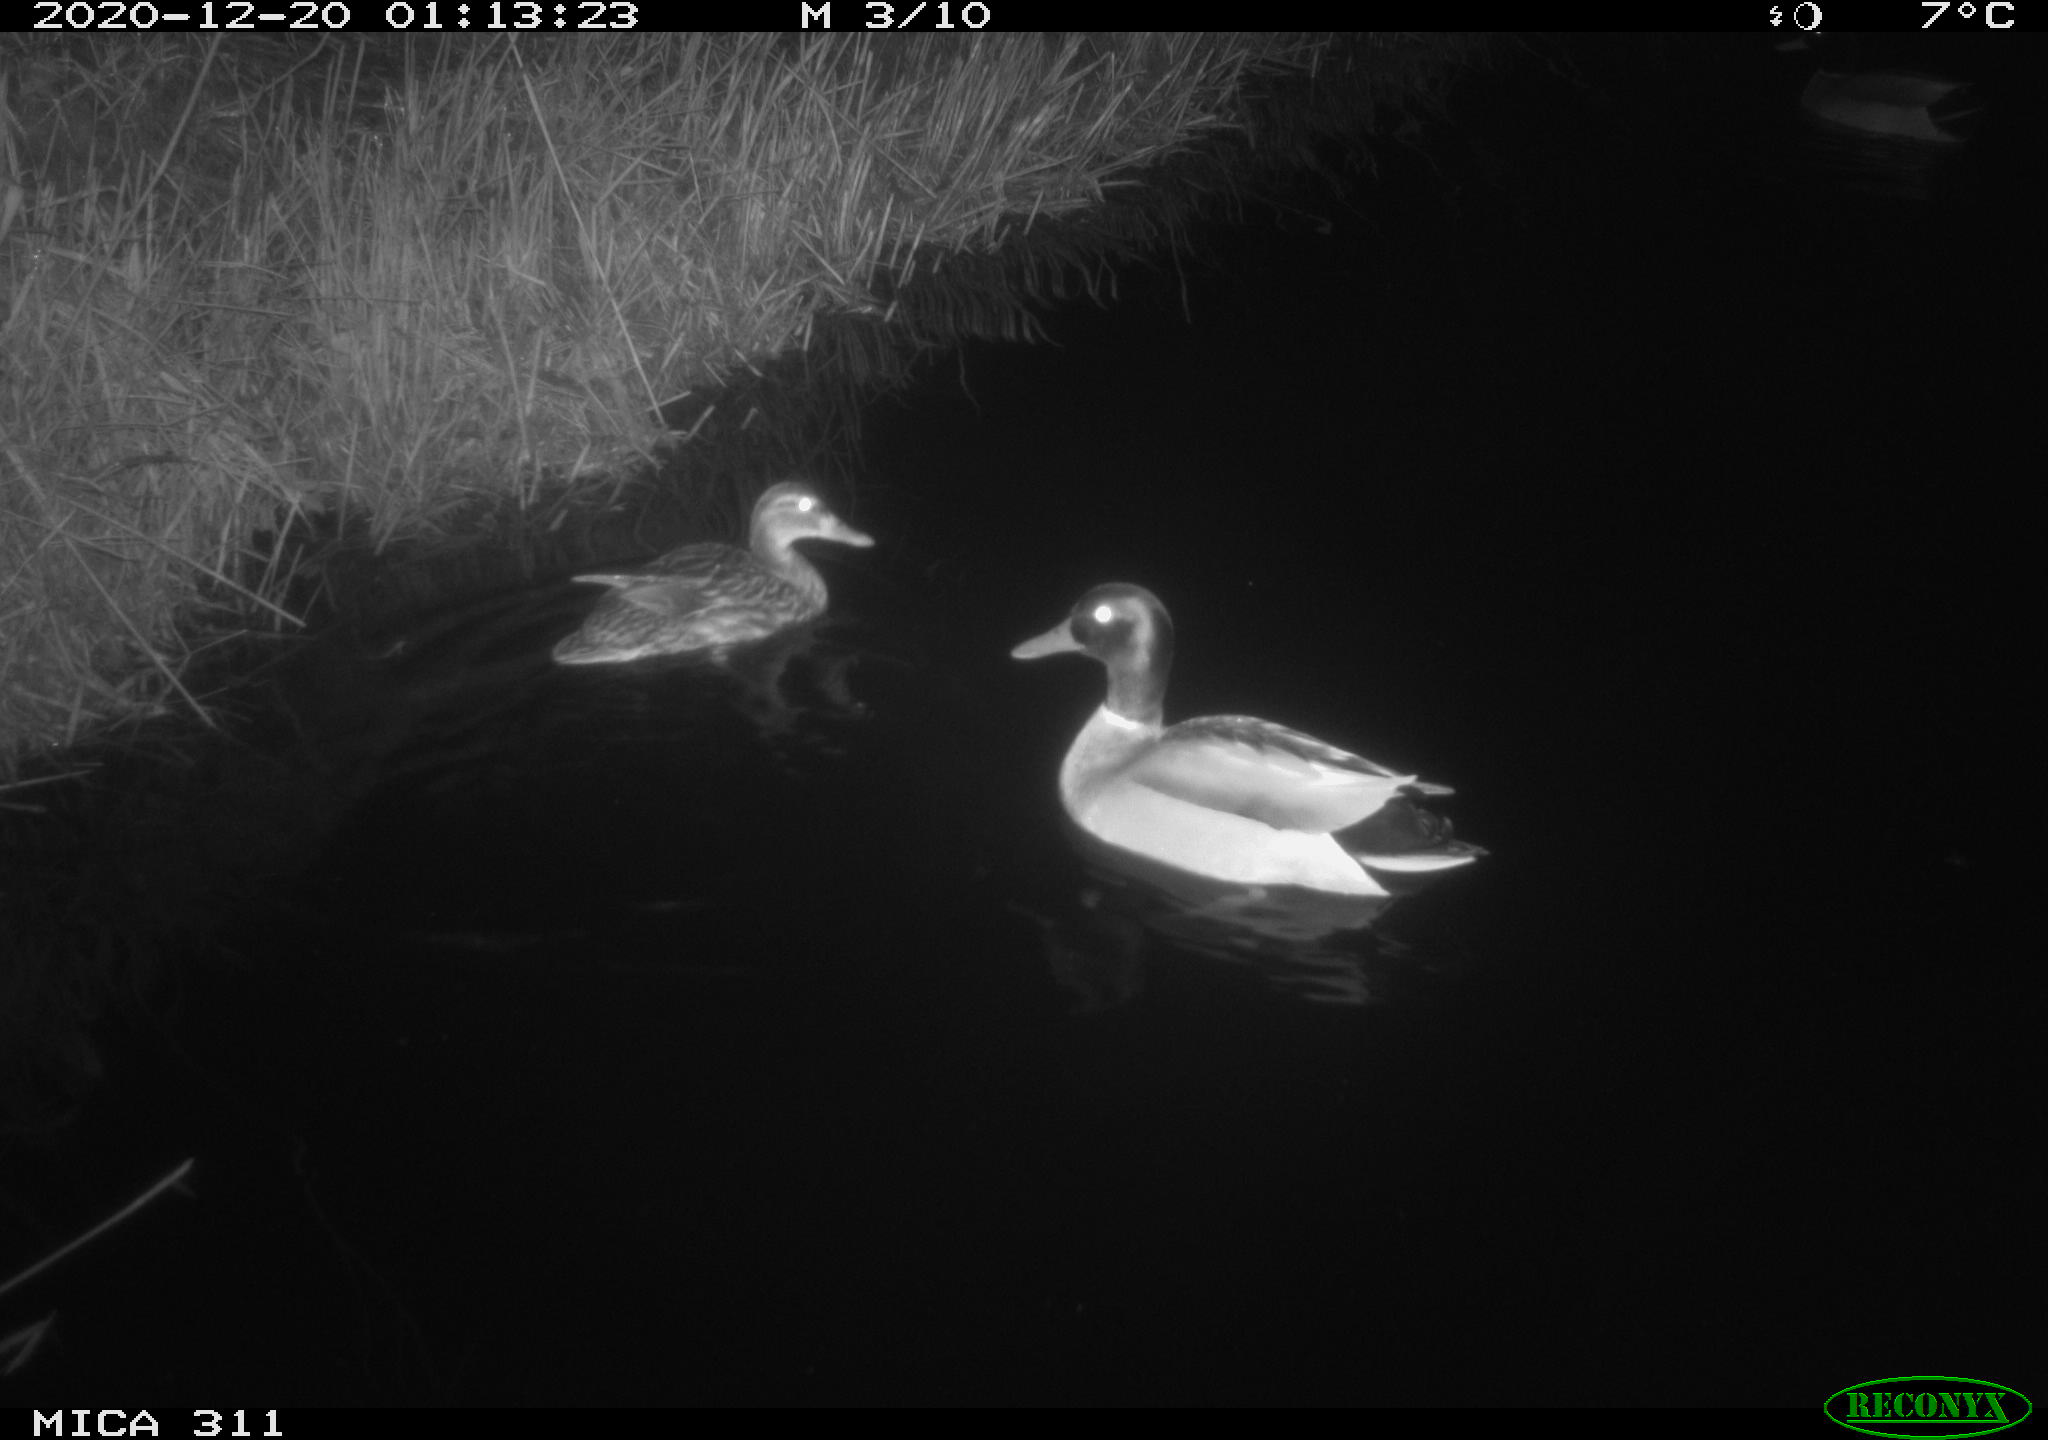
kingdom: Animalia
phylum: Chordata
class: Aves
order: Anseriformes
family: Anatidae
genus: Anas
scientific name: Anas platyrhynchos
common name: Mallard
